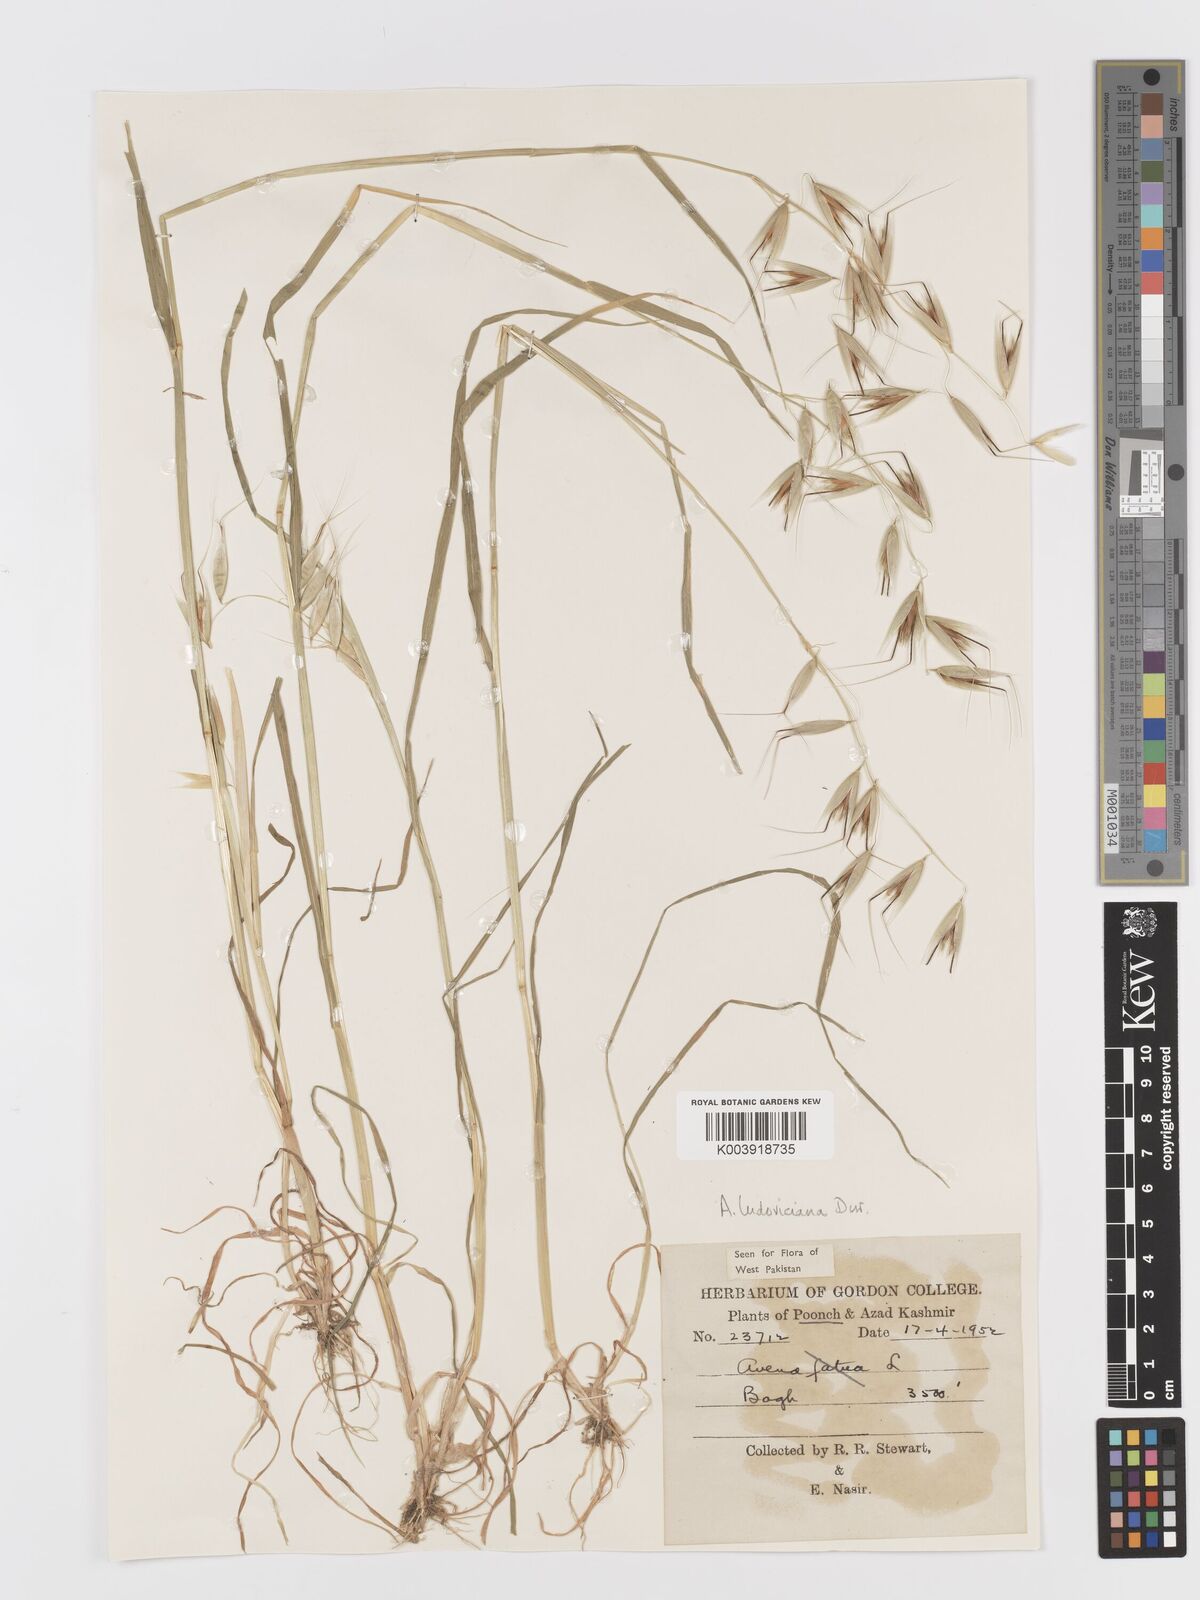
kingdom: Plantae
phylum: Tracheophyta
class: Liliopsida
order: Poales
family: Poaceae
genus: Avena
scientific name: Avena sterilis
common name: Animated oat
